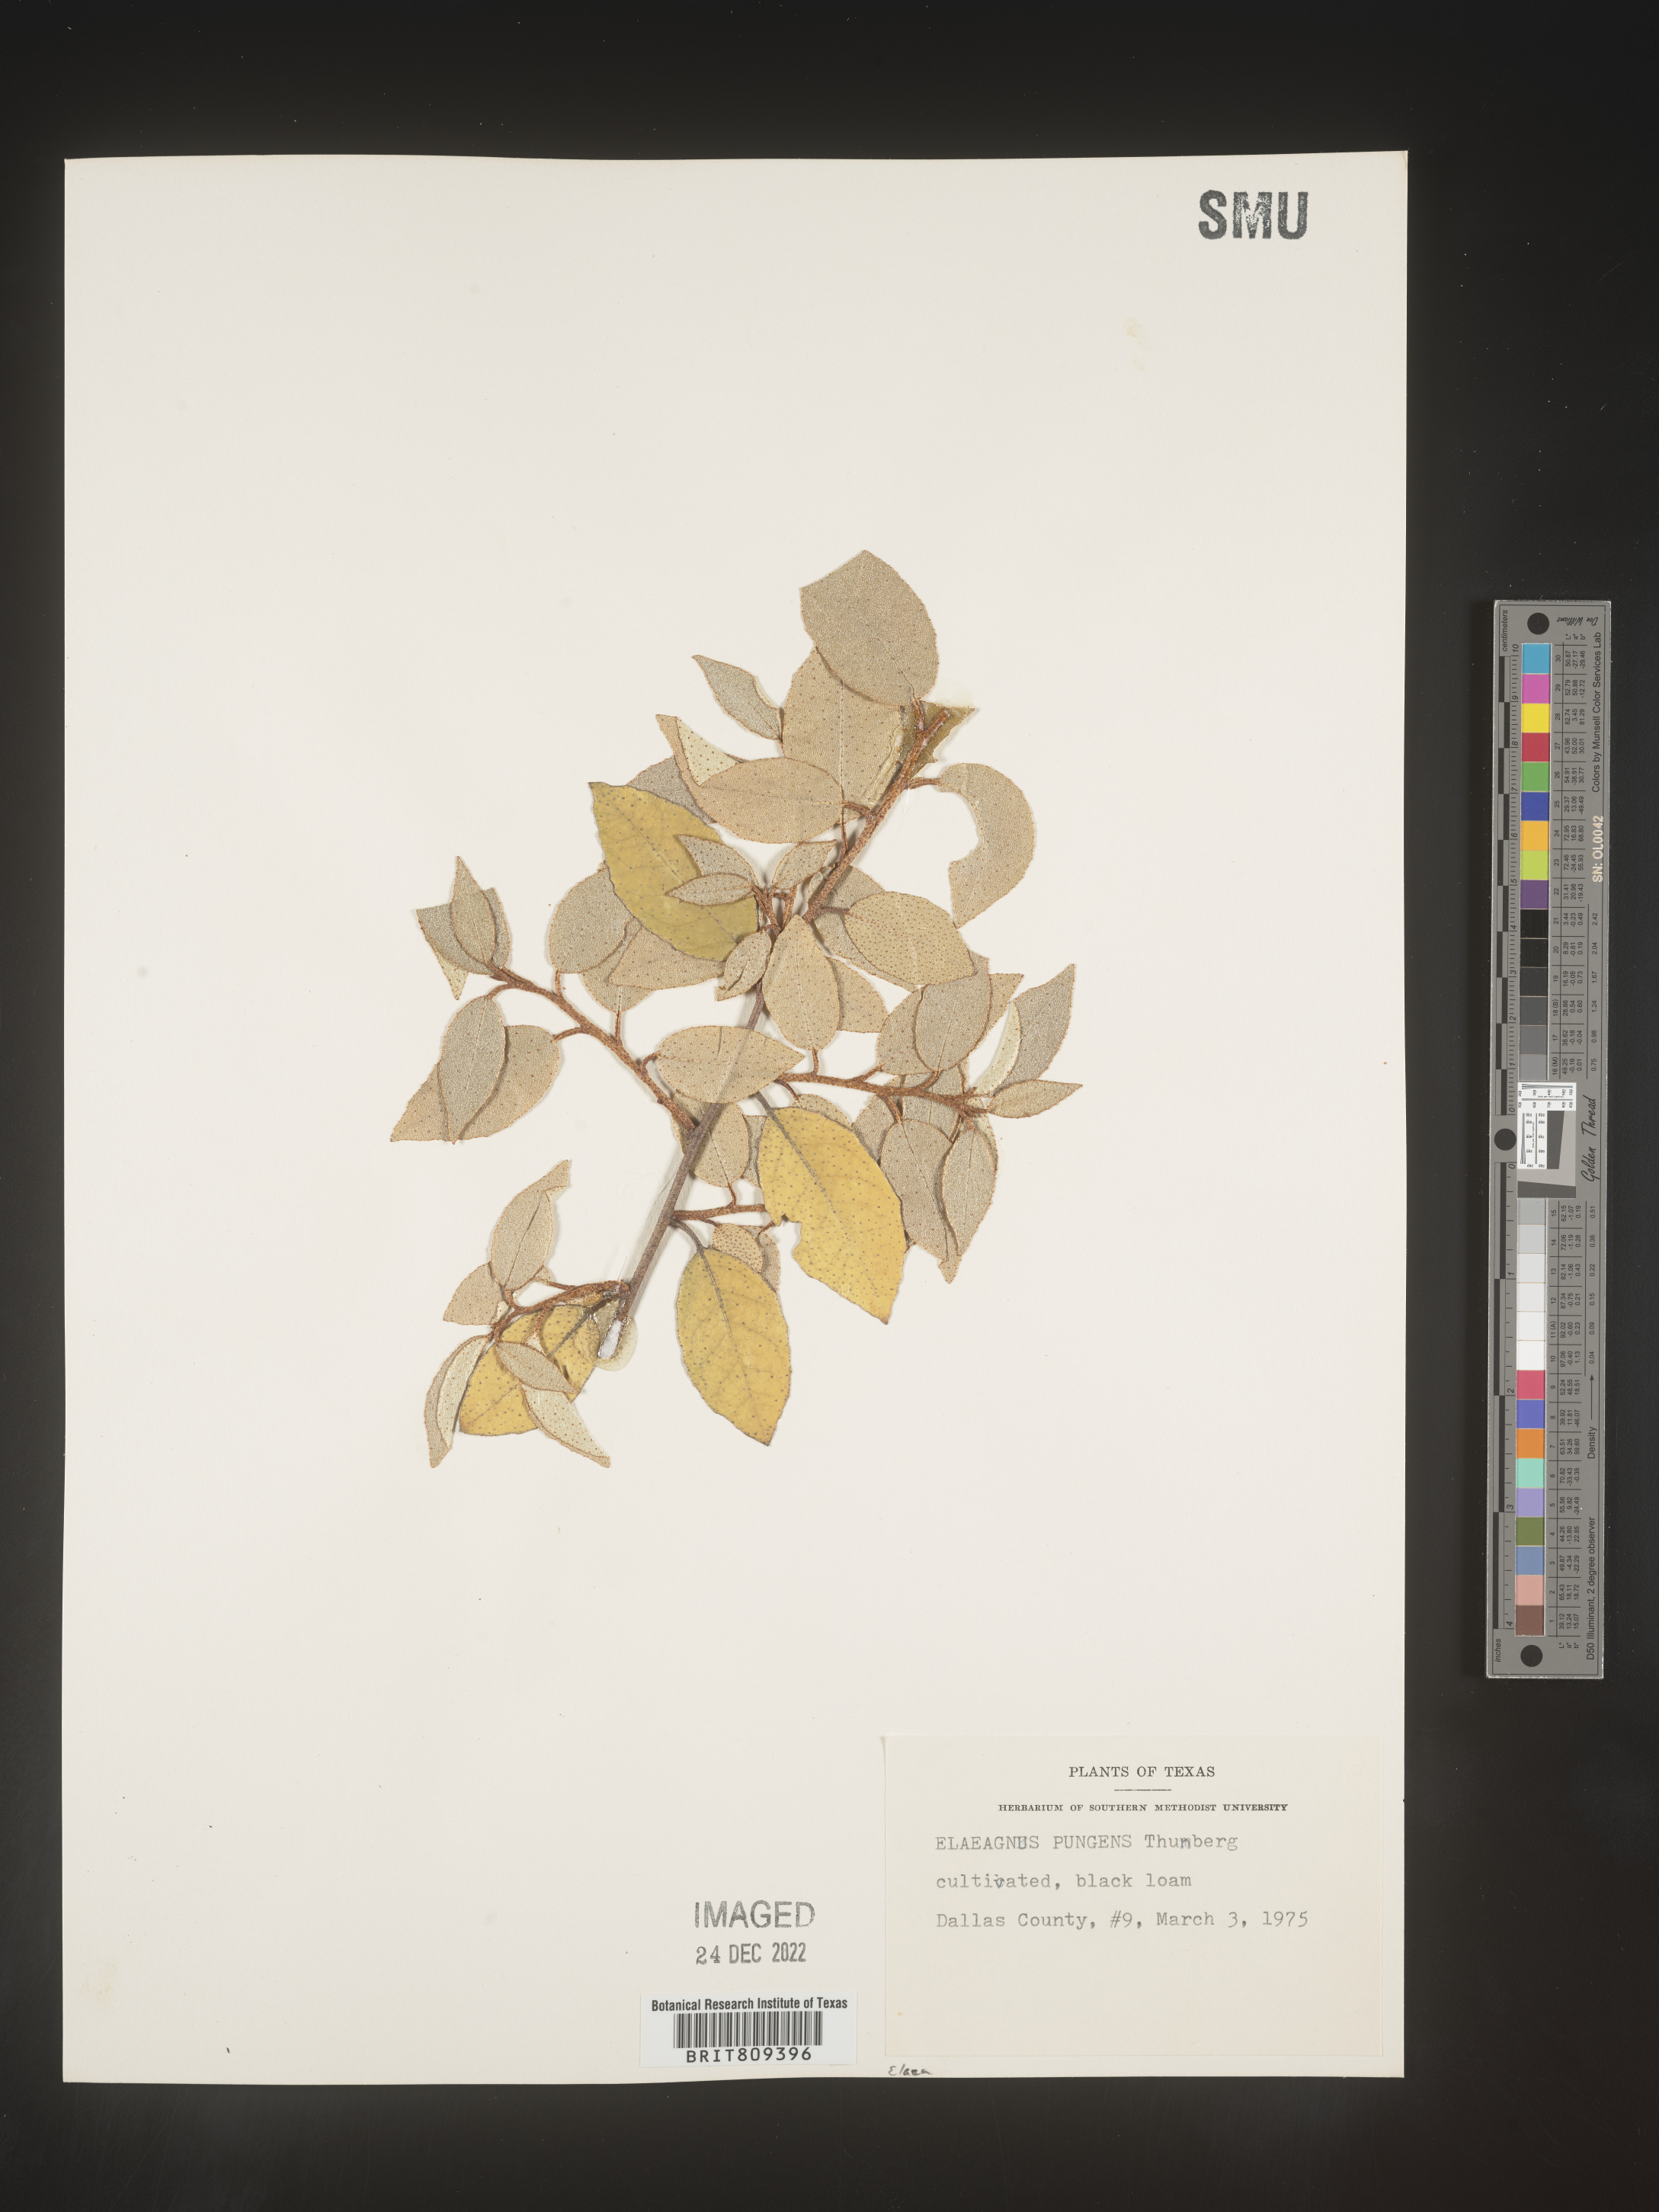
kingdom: Plantae
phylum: Tracheophyta
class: Magnoliopsida
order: Rosales
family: Elaeagnaceae
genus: Elaeagnus
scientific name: Elaeagnus
